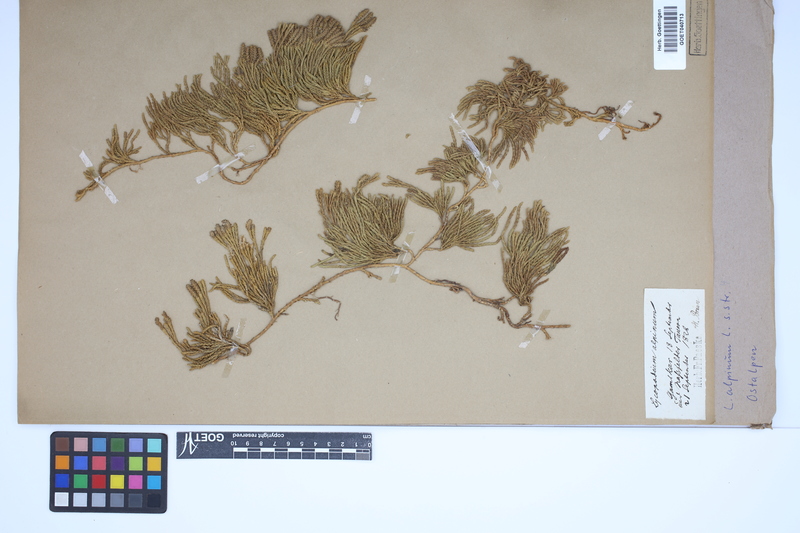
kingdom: Plantae
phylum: Tracheophyta
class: Lycopodiopsida
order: Lycopodiales
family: Lycopodiaceae
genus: Diphasiastrum
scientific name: Diphasiastrum alpinum
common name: Alpine clubmoss
